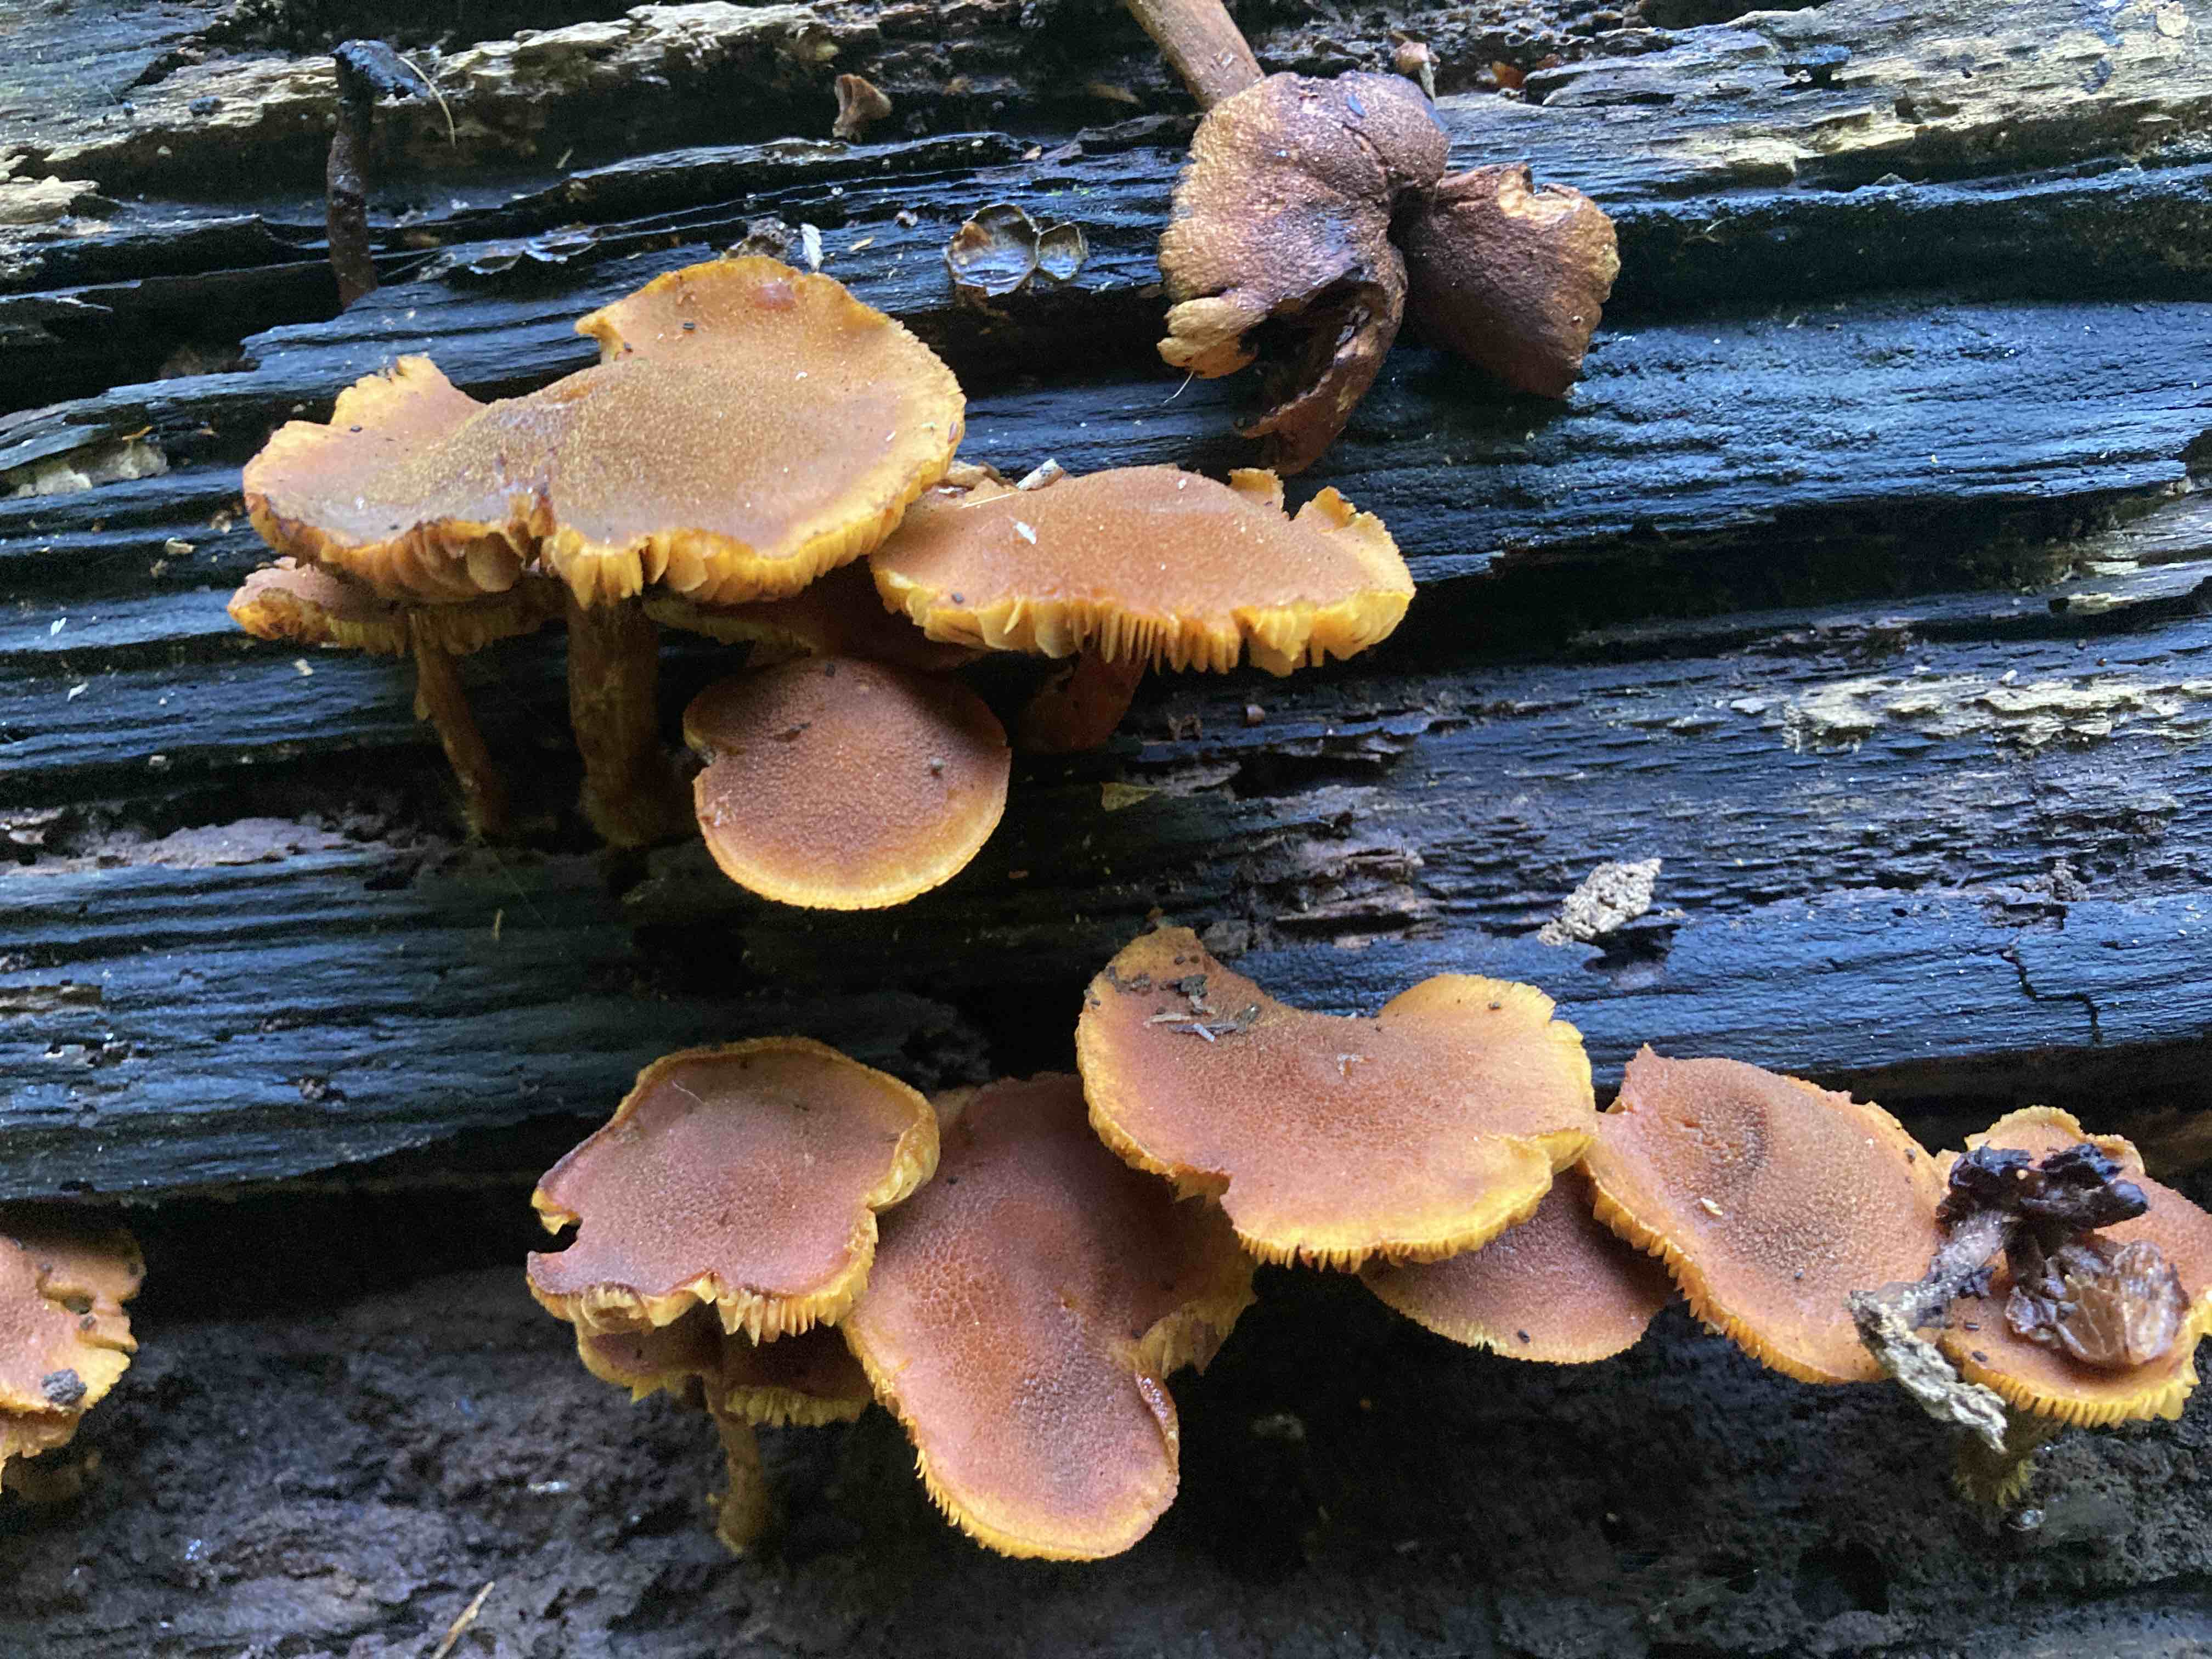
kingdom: Fungi
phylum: Basidiomycota
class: Agaricomycetes
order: Agaricales
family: Tubariaceae
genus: Flammulaster
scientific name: Flammulaster limulatus
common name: gylden grynskælhat
